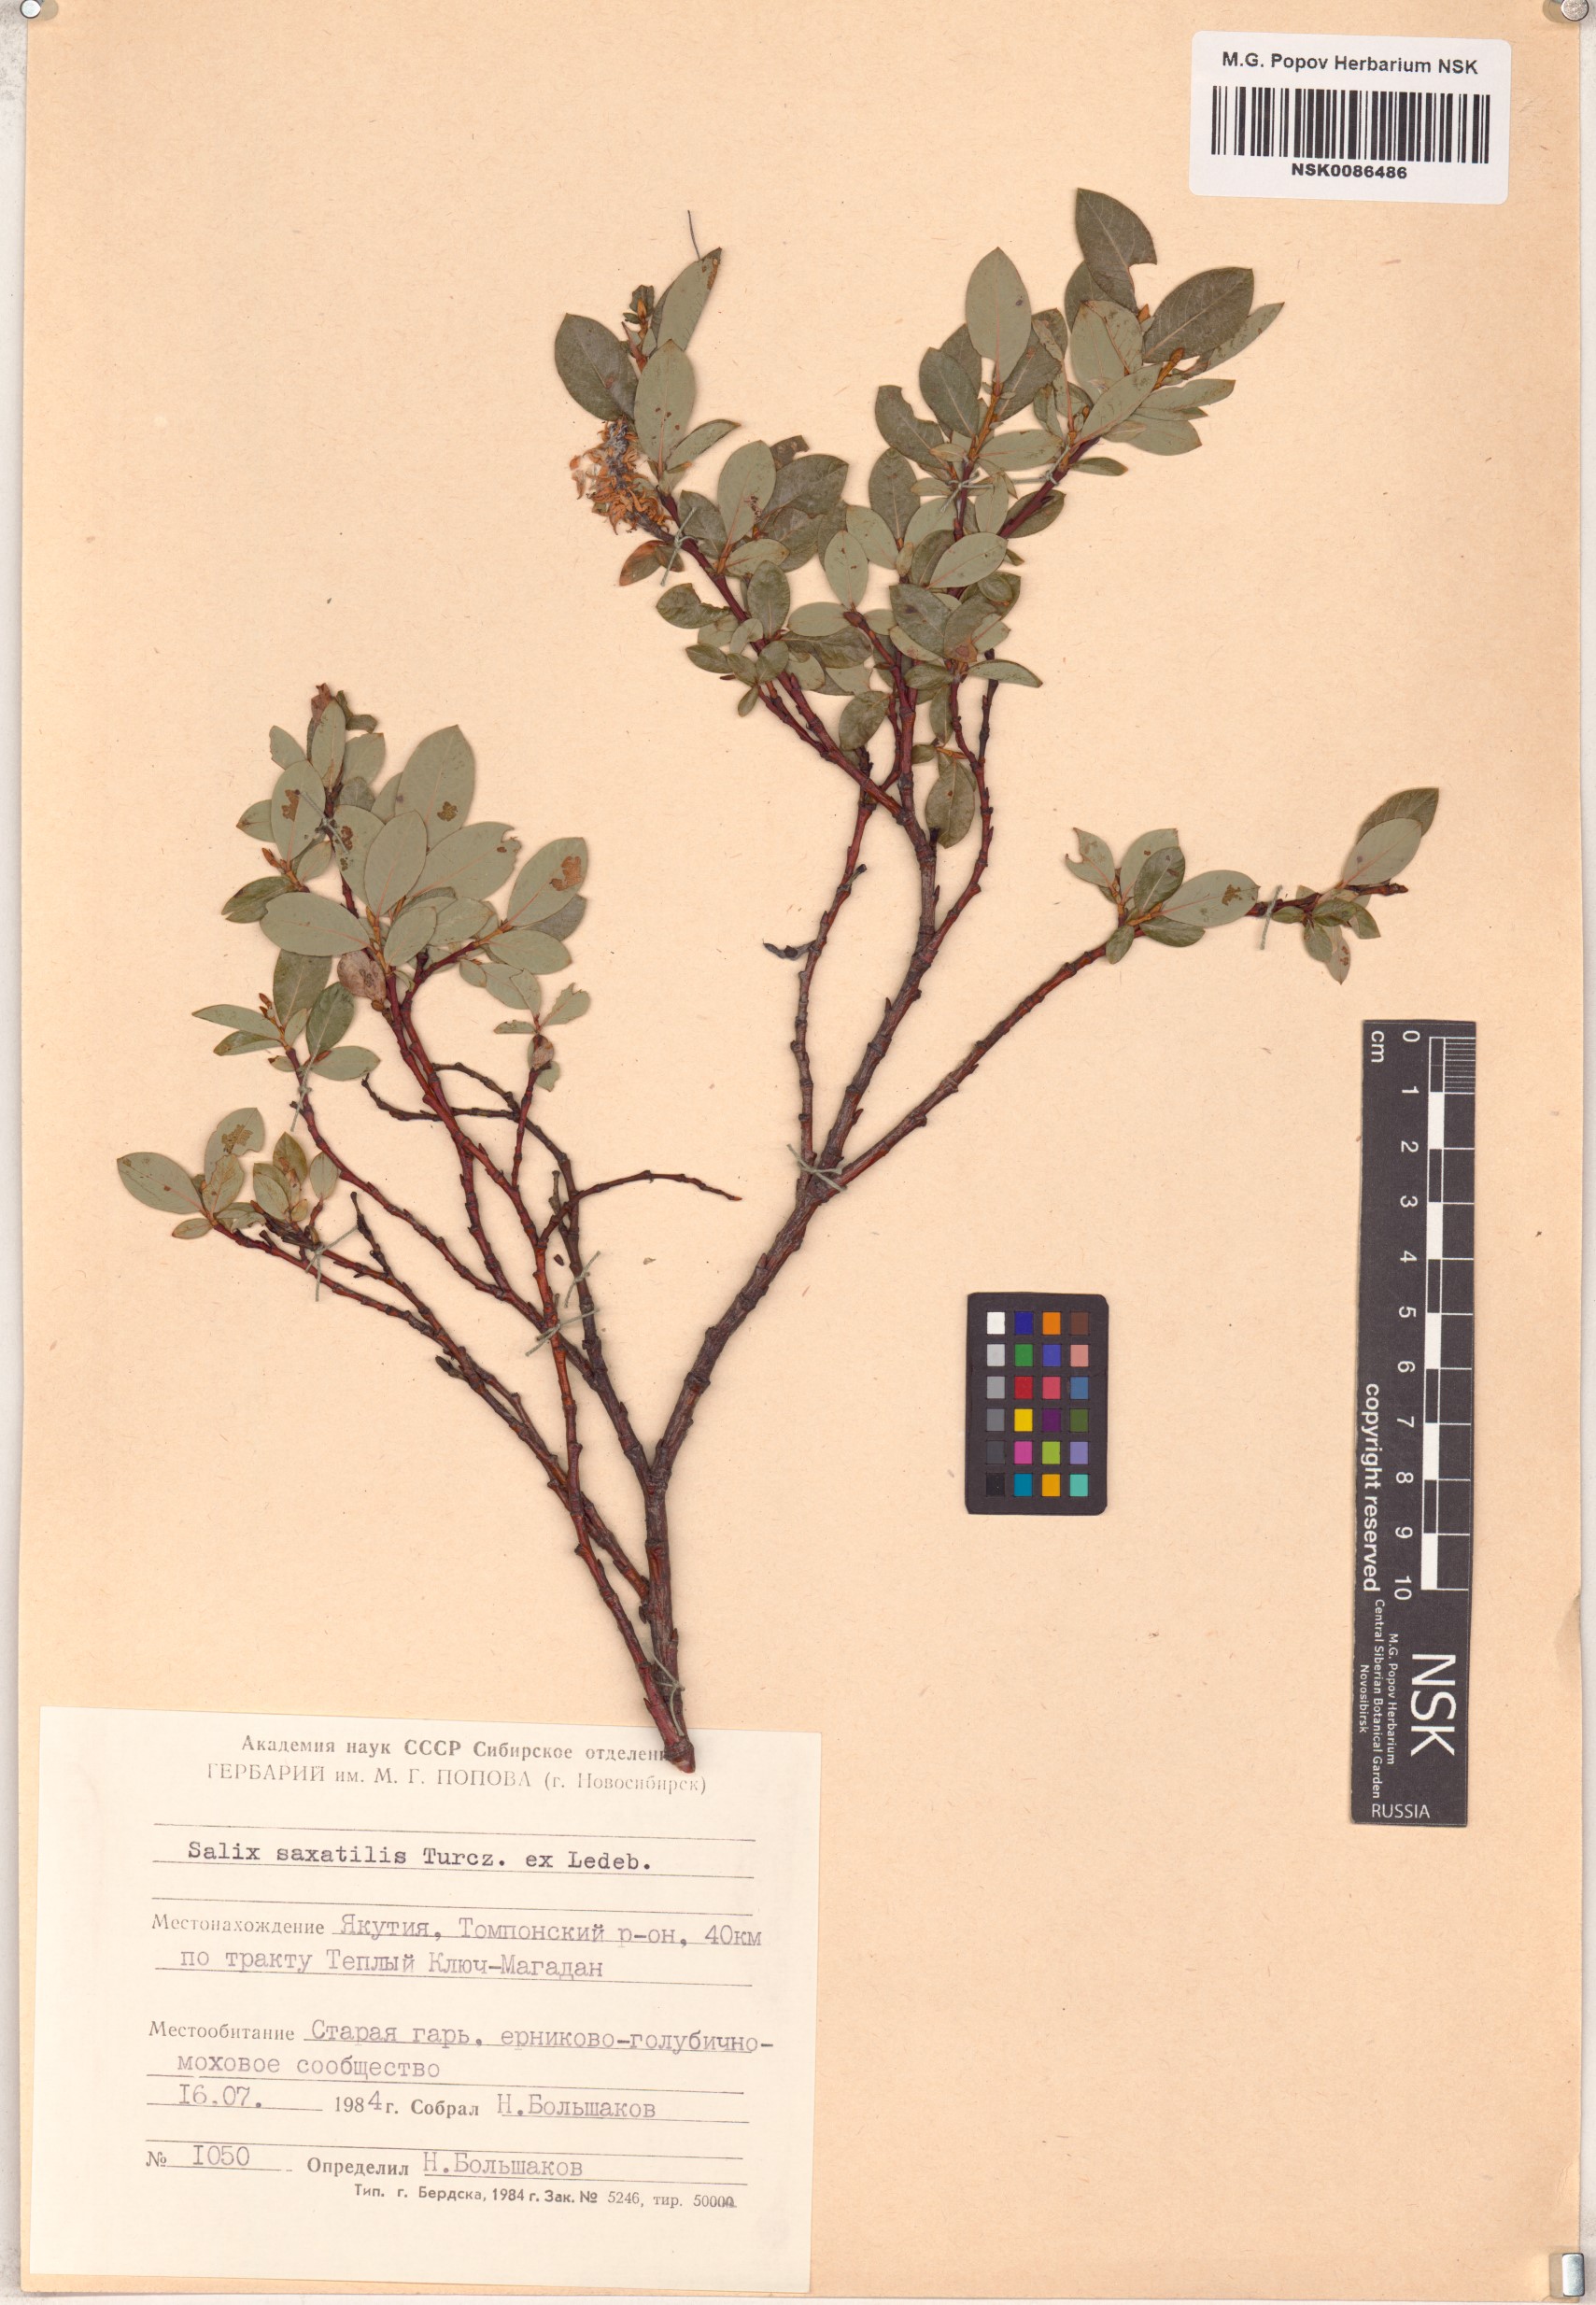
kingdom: Plantae
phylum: Tracheophyta
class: Magnoliopsida
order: Malpighiales
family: Salicaceae
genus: Salix
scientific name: Salix saxatilis
